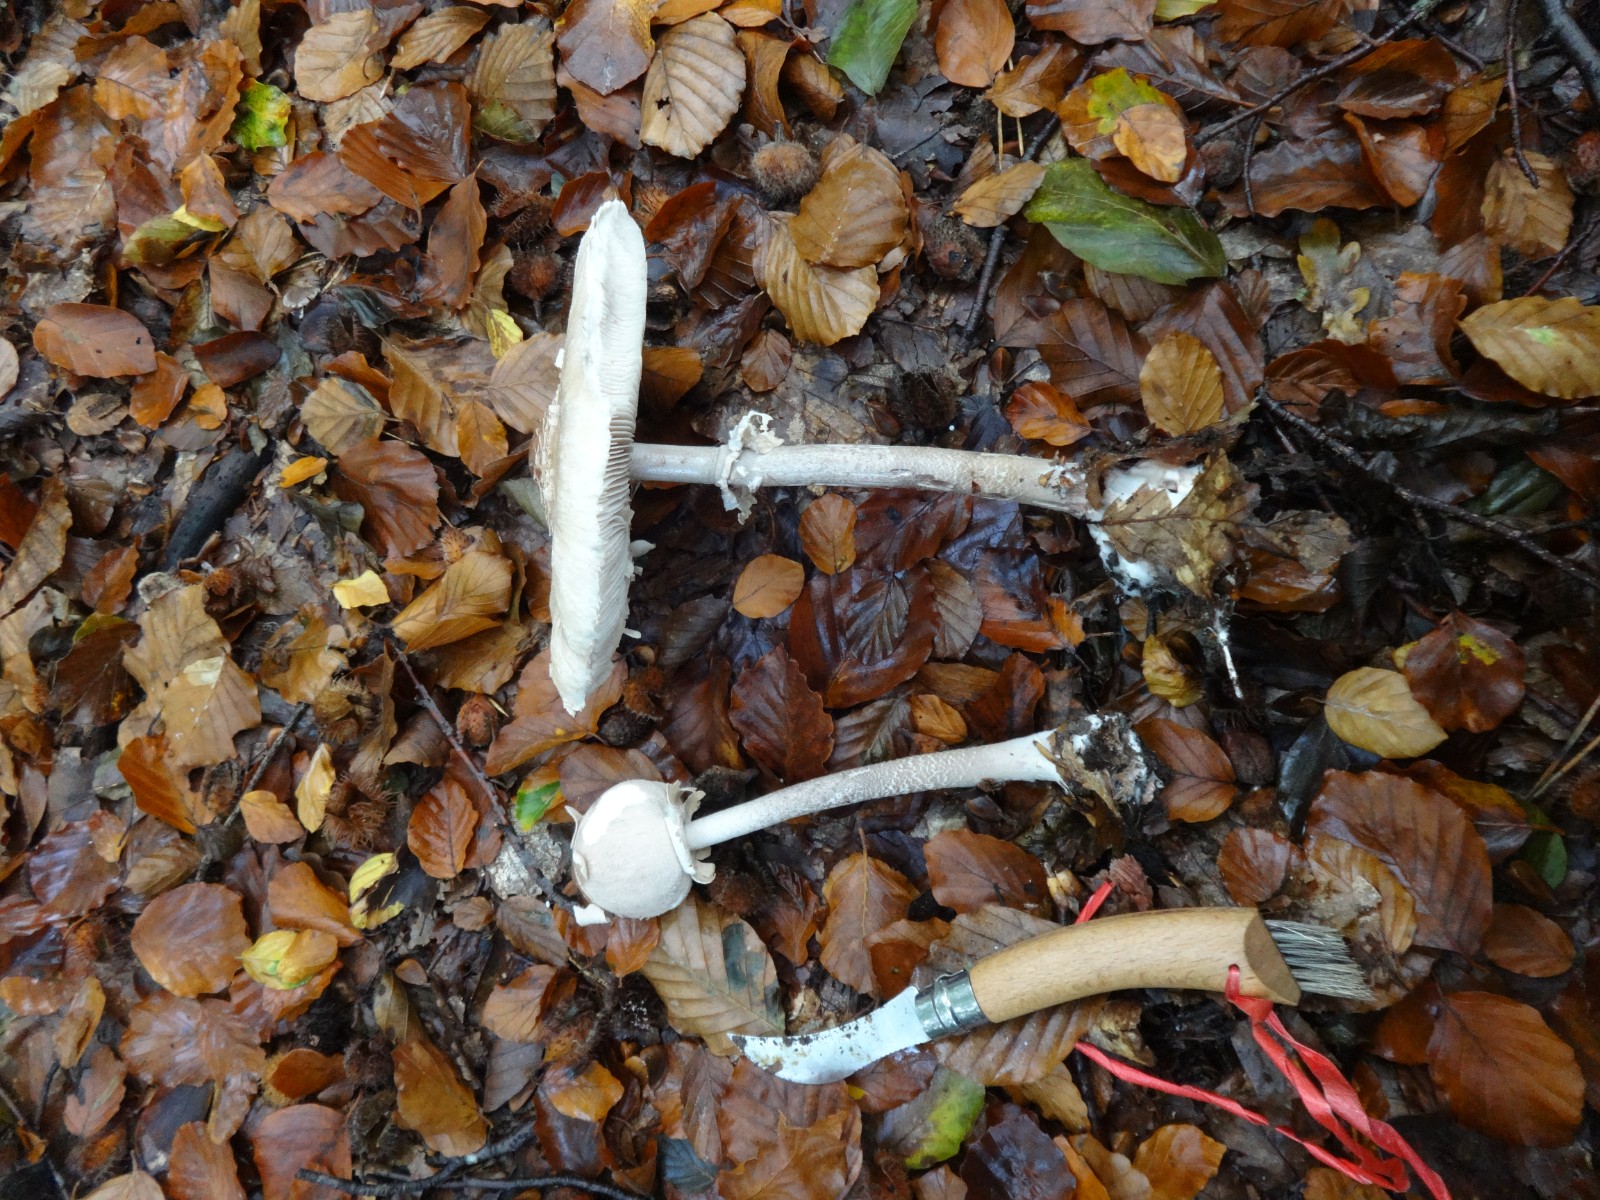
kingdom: Fungi
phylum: Basidiomycota
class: Agaricomycetes
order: Agaricales
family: Agaricaceae
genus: Macrolepiota
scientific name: Macrolepiota
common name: kæmpeparasolhat
